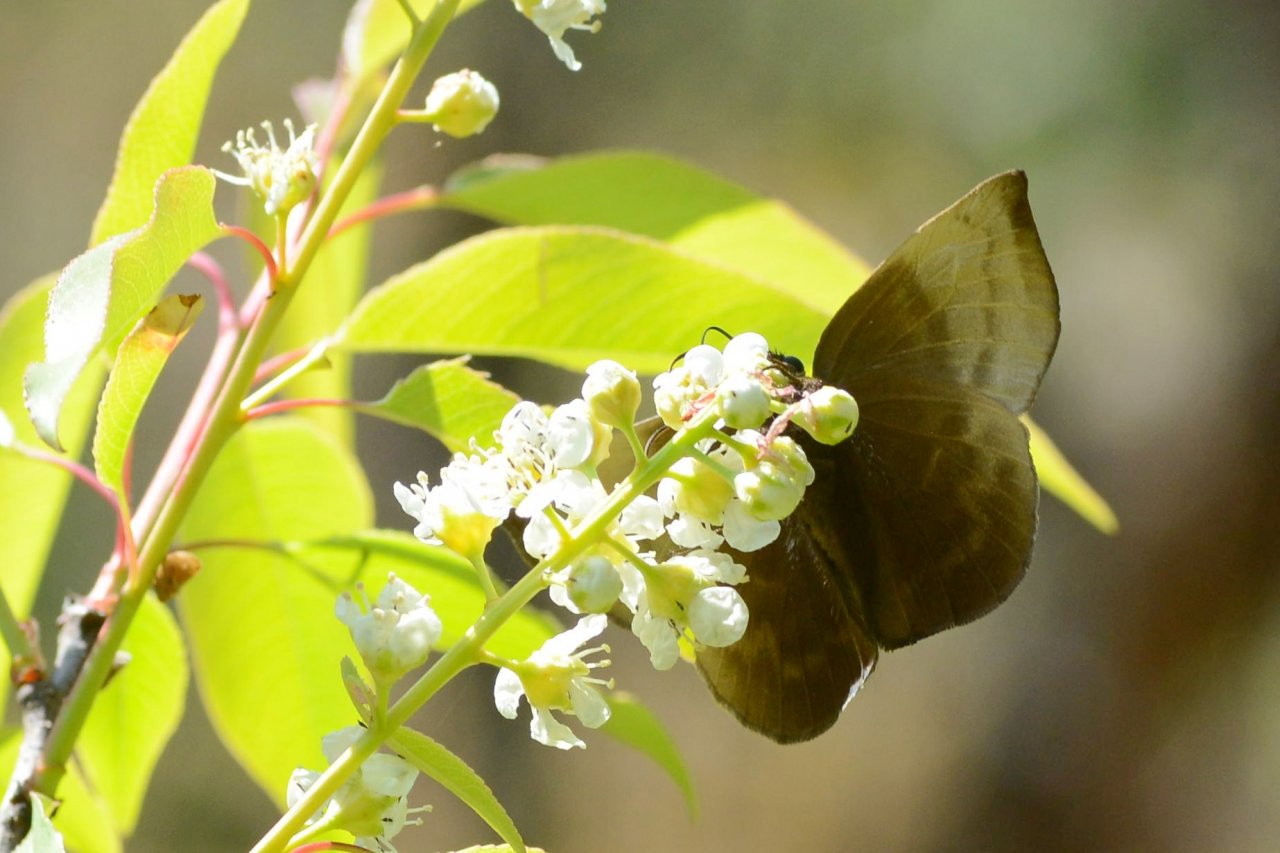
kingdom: Animalia
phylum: Arthropoda
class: Insecta
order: Lepidoptera
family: Hesperiidae
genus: Achlyodes
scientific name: Achlyodes pallida
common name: Pale Sicklewing
